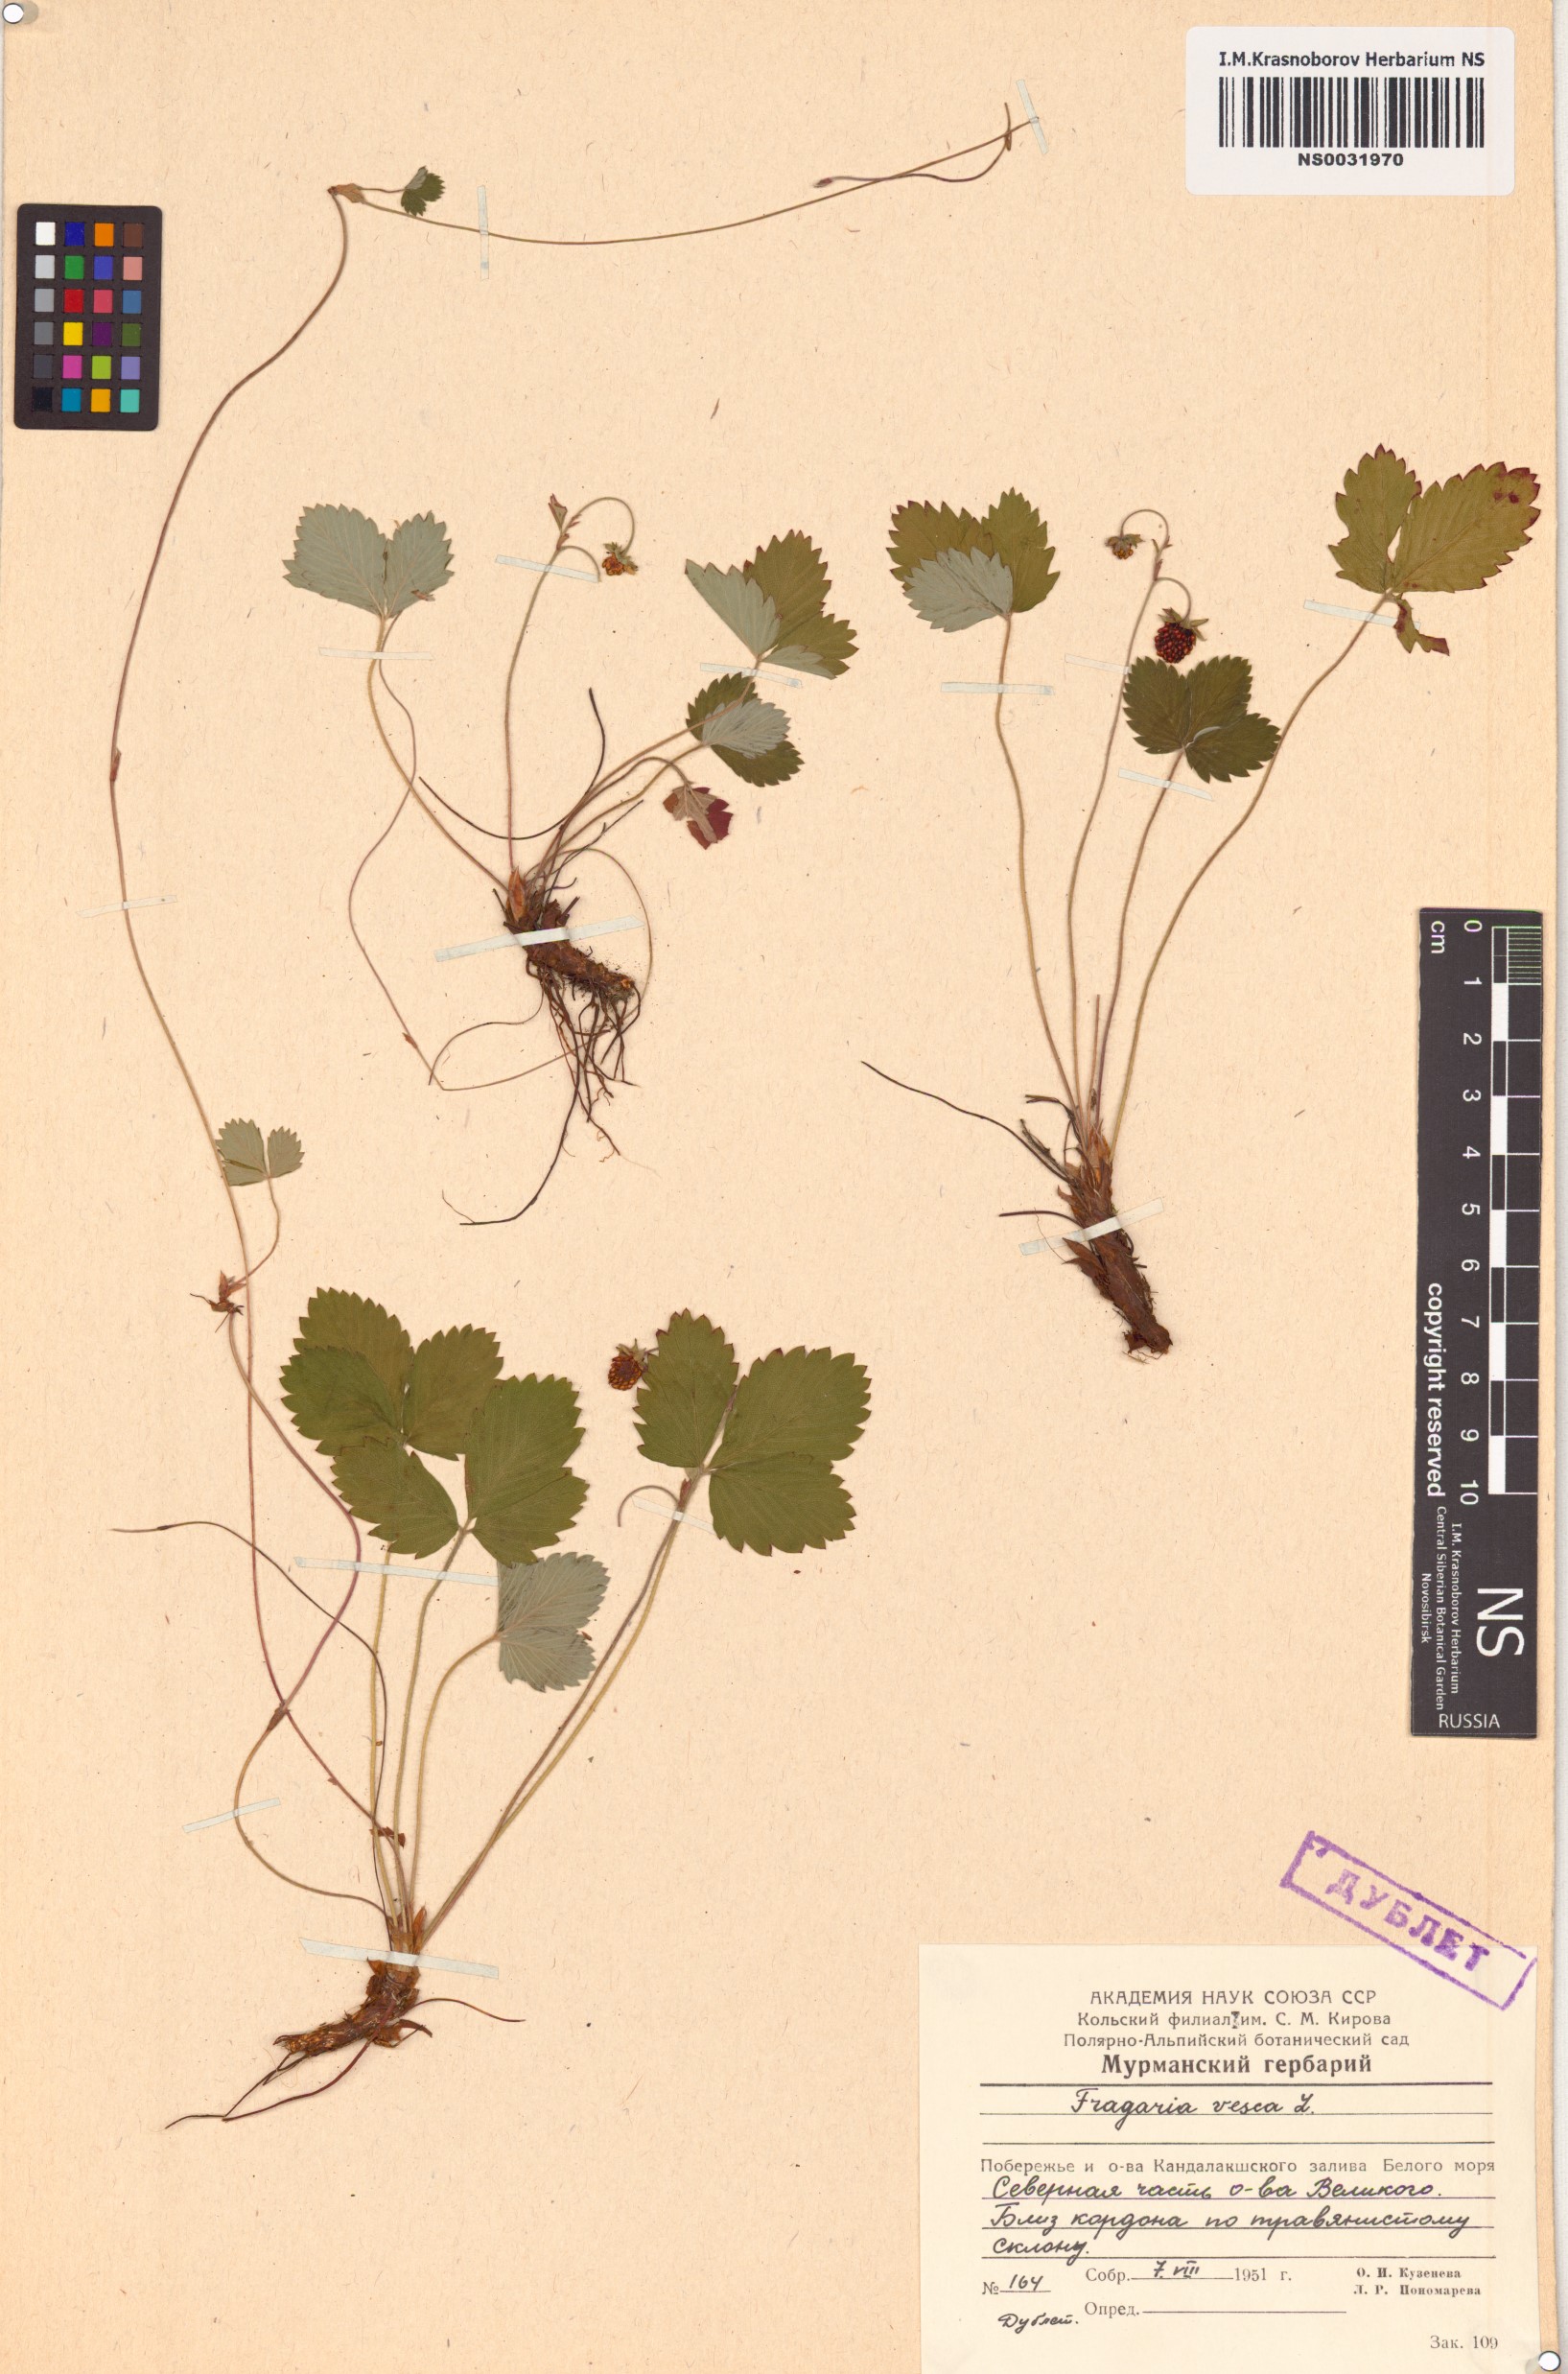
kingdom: Plantae
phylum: Tracheophyta
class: Magnoliopsida
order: Rosales
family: Rosaceae
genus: Fragaria
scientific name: Fragaria vesca
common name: Wild strawberry
